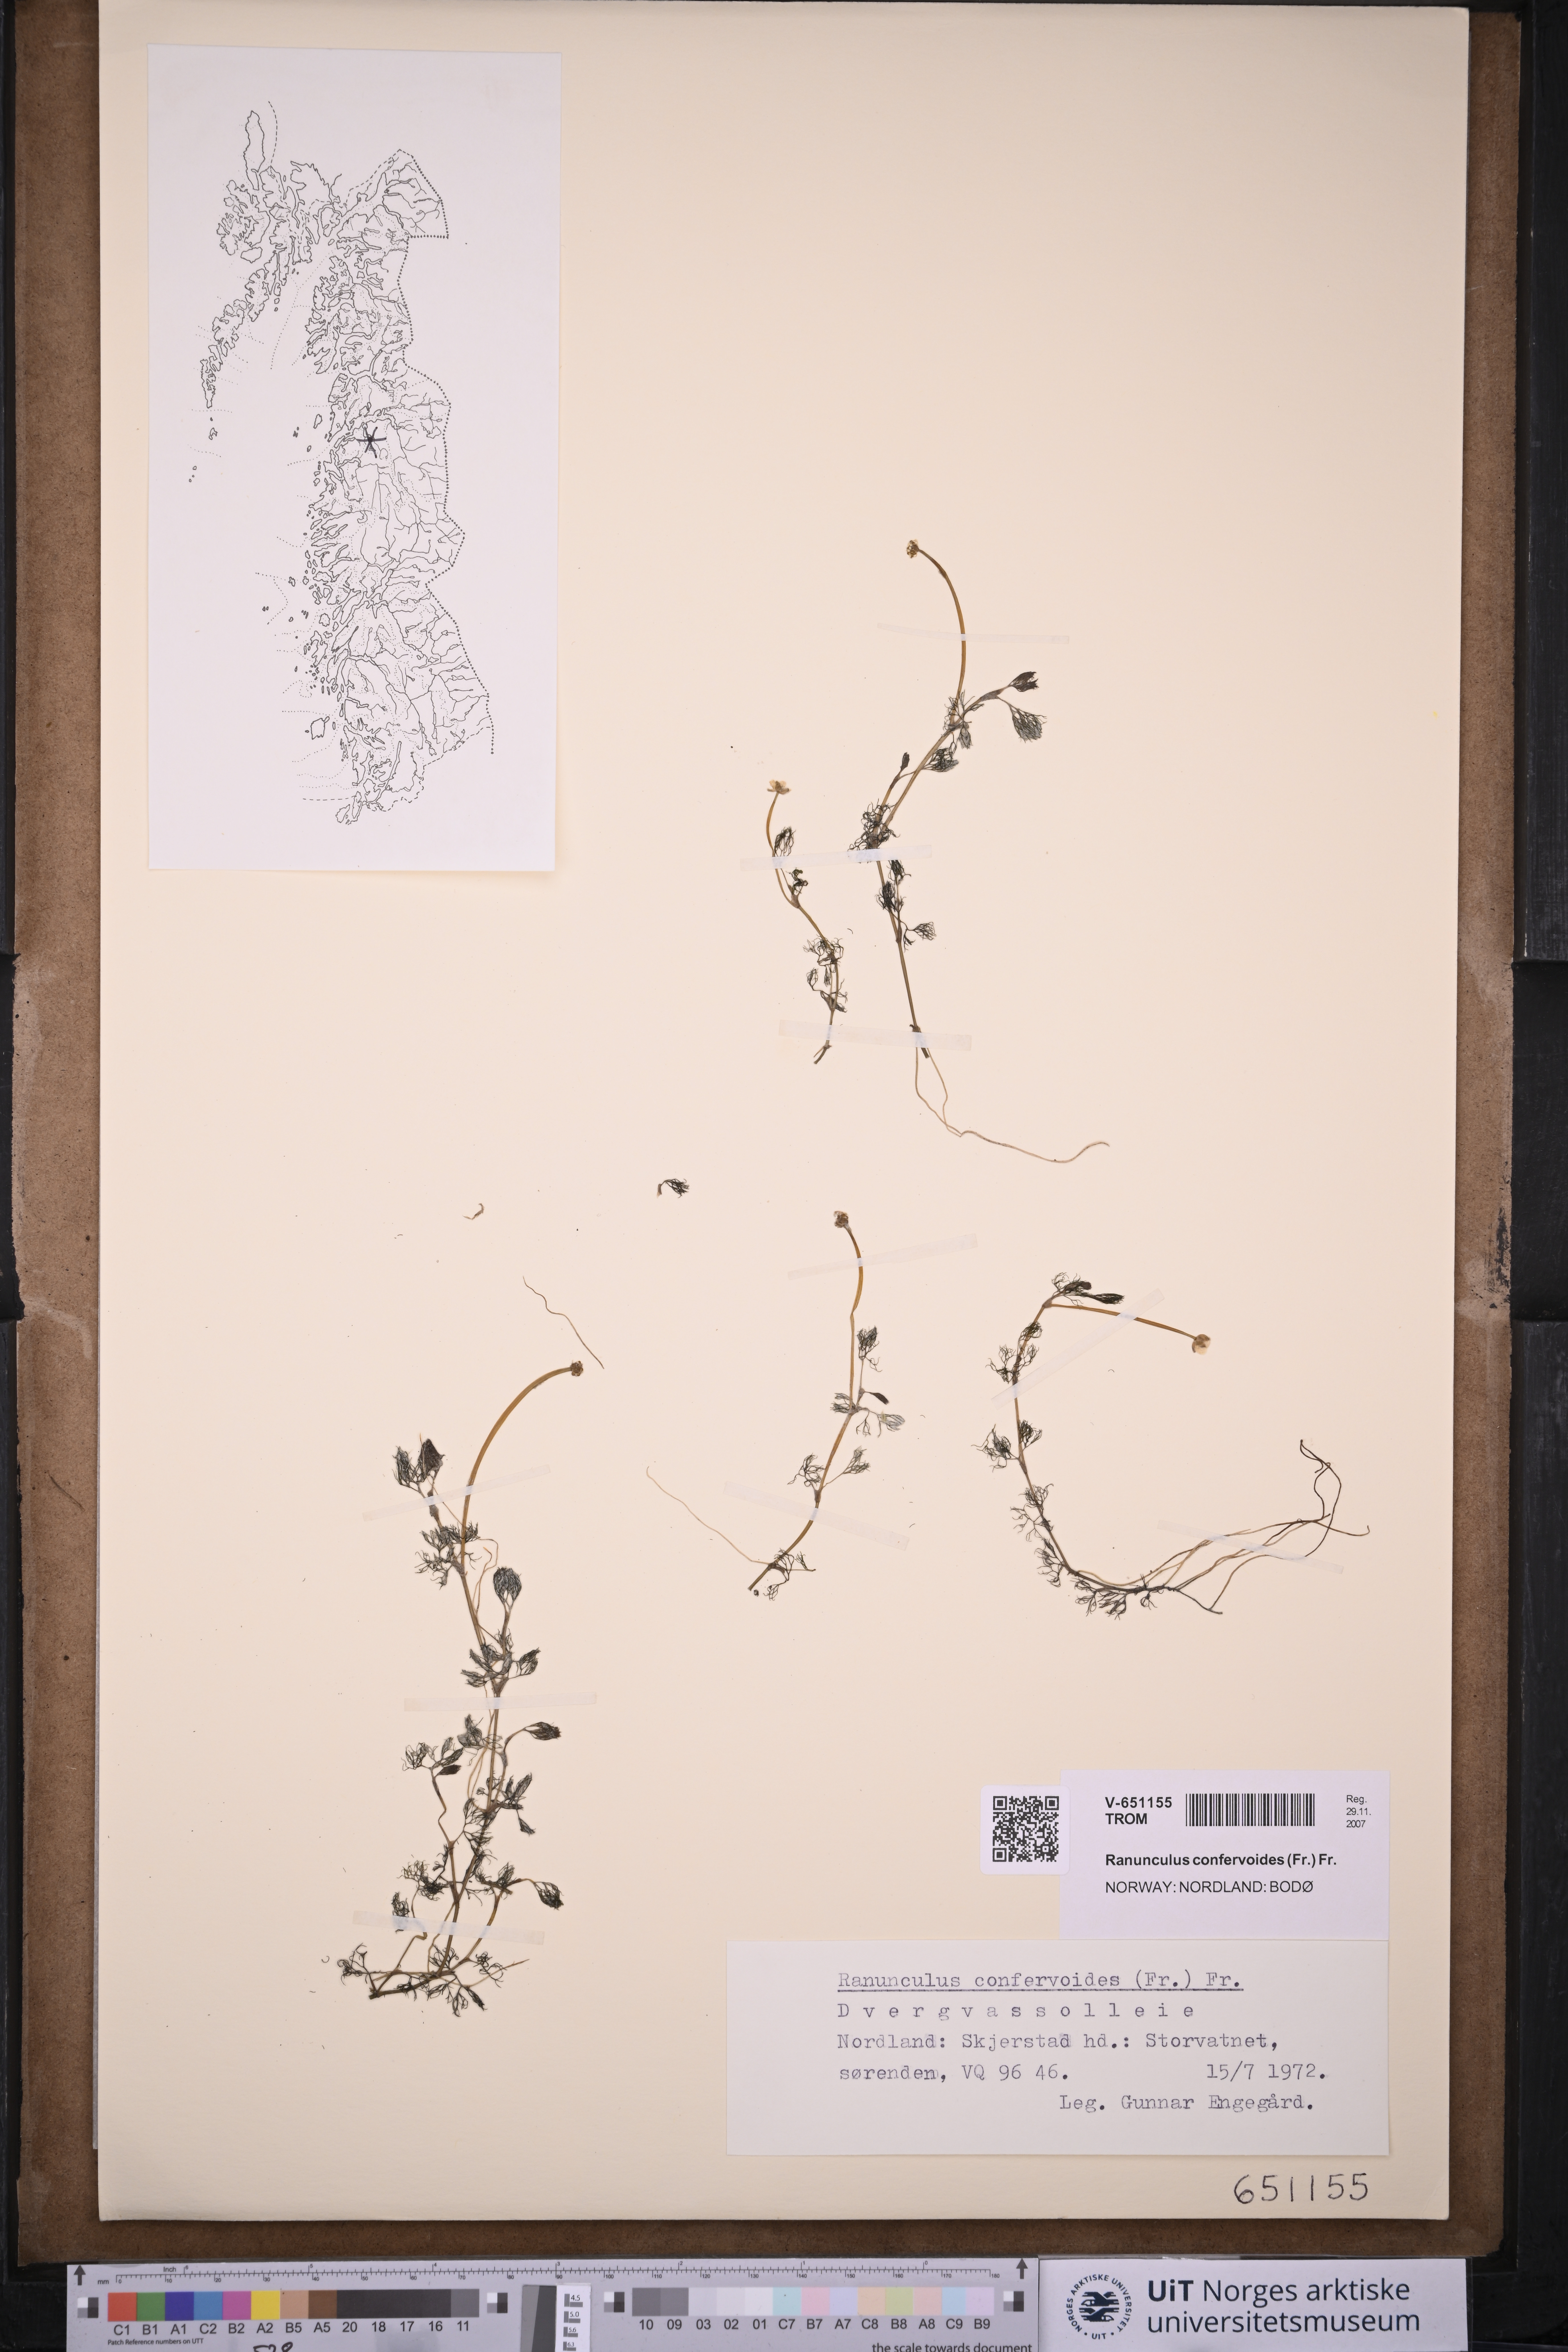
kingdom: Plantae
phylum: Tracheophyta
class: Magnoliopsida
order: Ranunculales
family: Ranunculaceae
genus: Ranunculus
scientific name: Ranunculus confervoides
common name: Delicate buttercup
